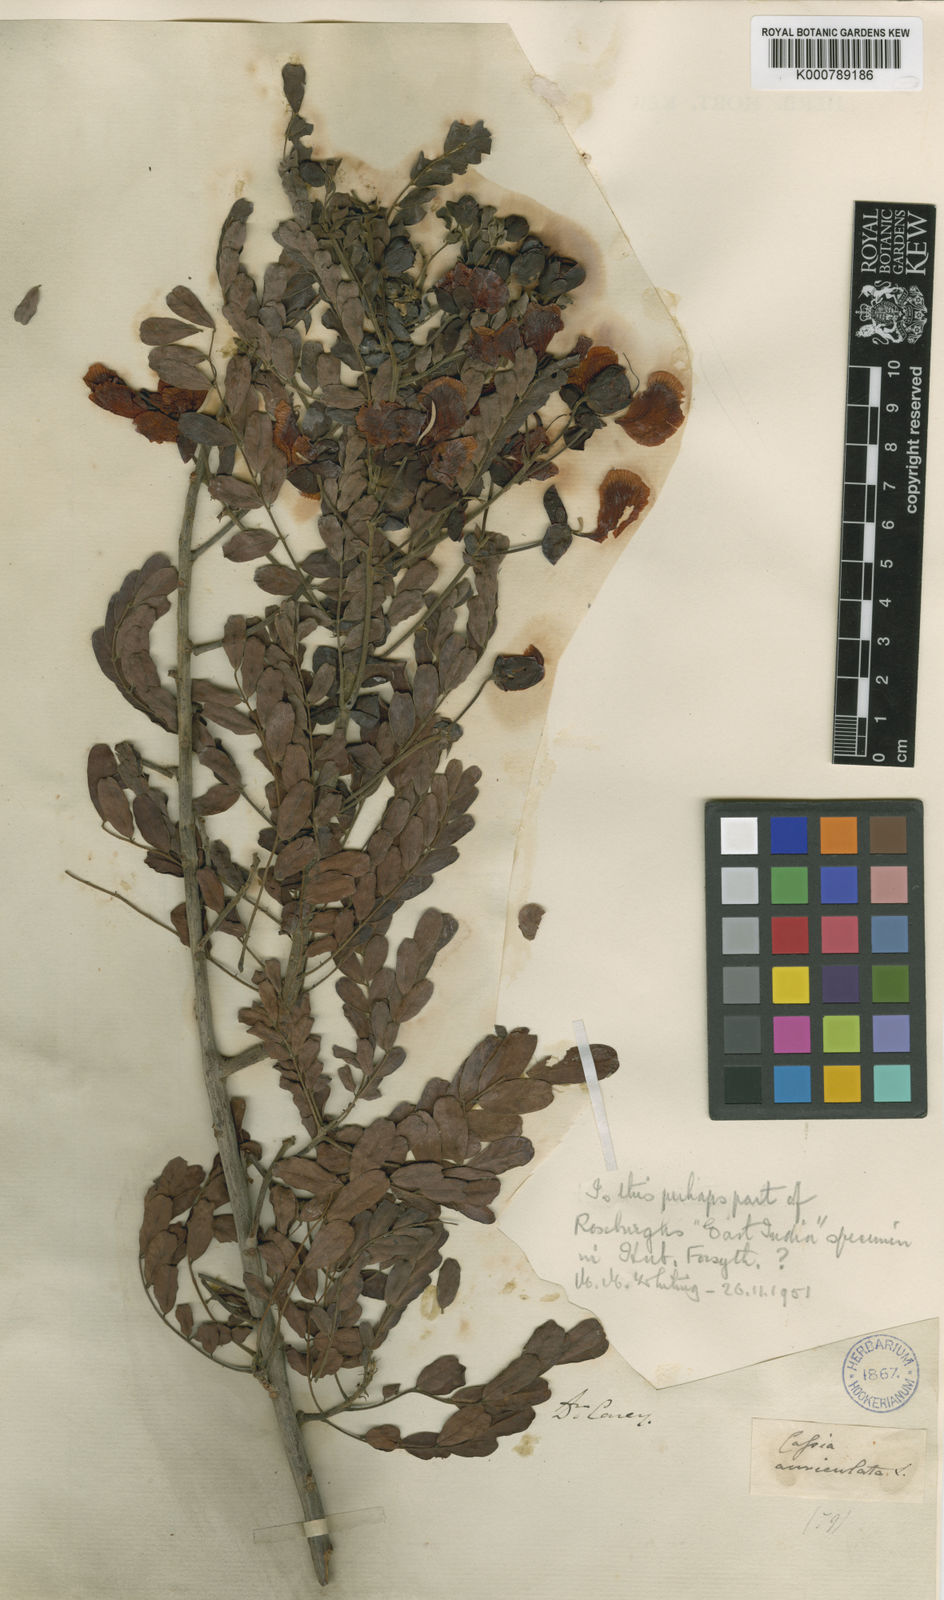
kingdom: Plantae
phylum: Tracheophyta
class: Magnoliopsida
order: Fabales
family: Fabaceae
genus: Senna
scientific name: Senna auriculata
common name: Tanner's cassia
